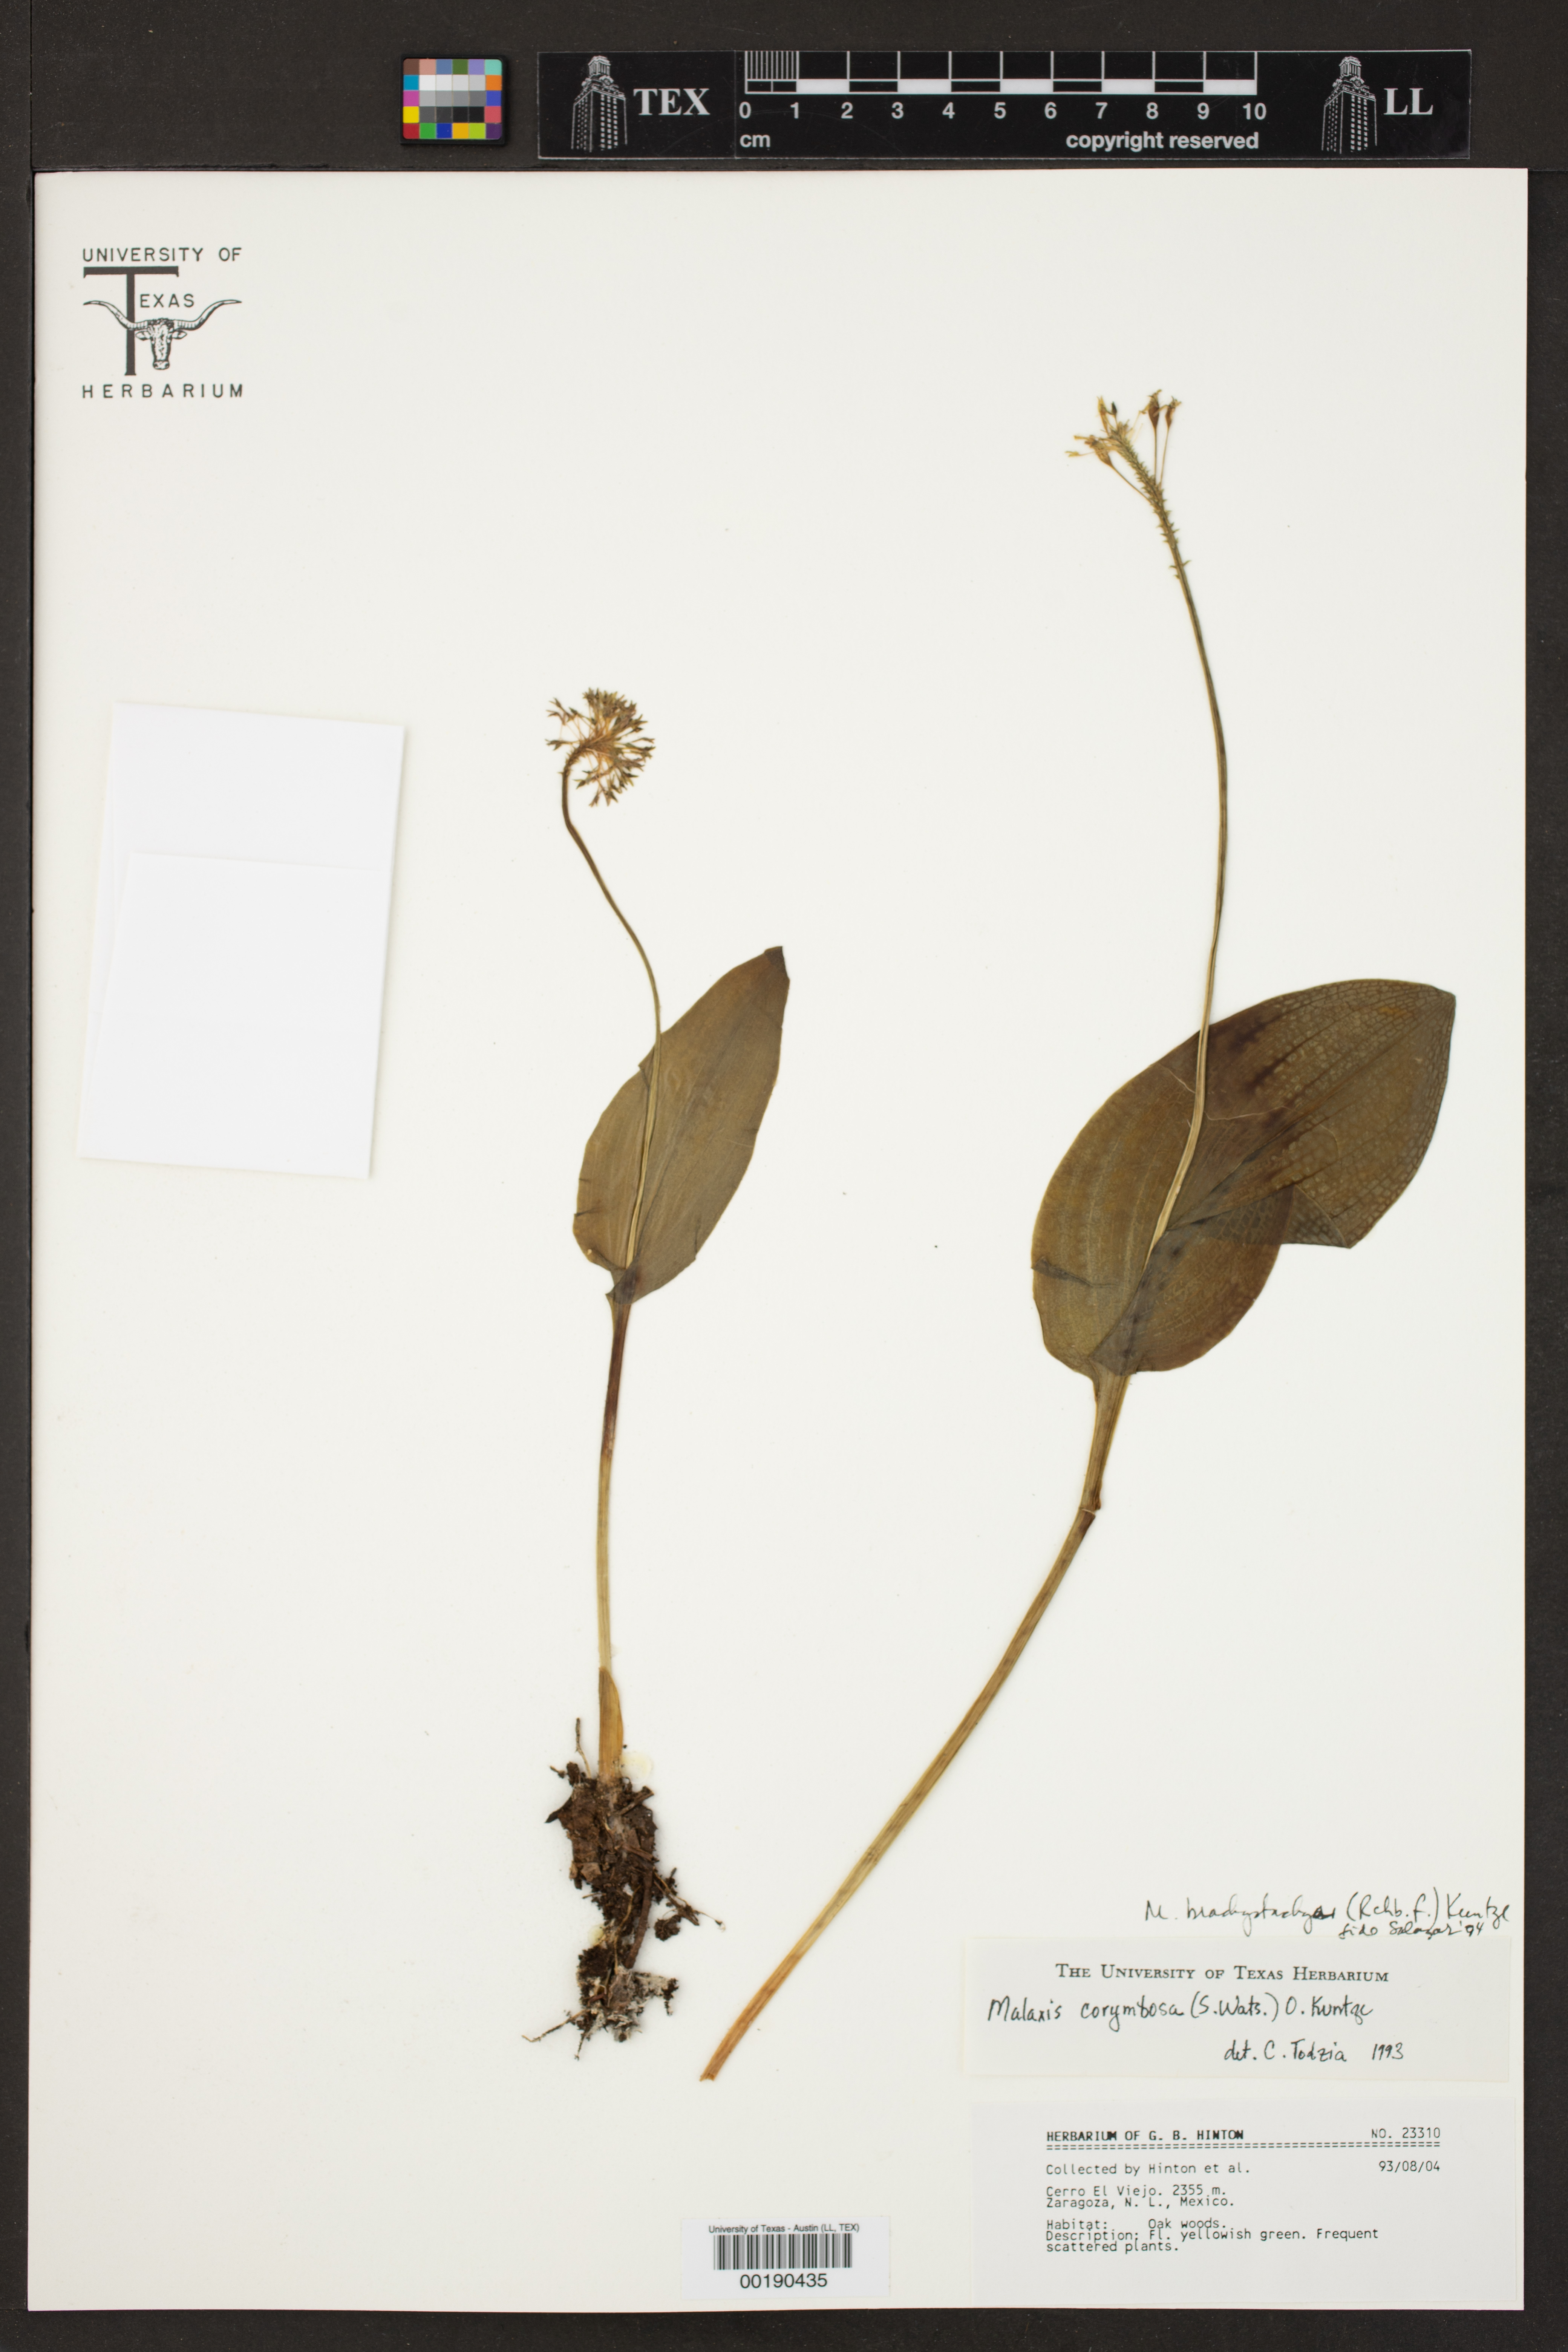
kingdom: Plantae
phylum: Tracheophyta
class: Liliopsida
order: Asparagales
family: Orchidaceae
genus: Malaxis
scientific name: Malaxis brachystachys
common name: Huachuca adder's-mouth
